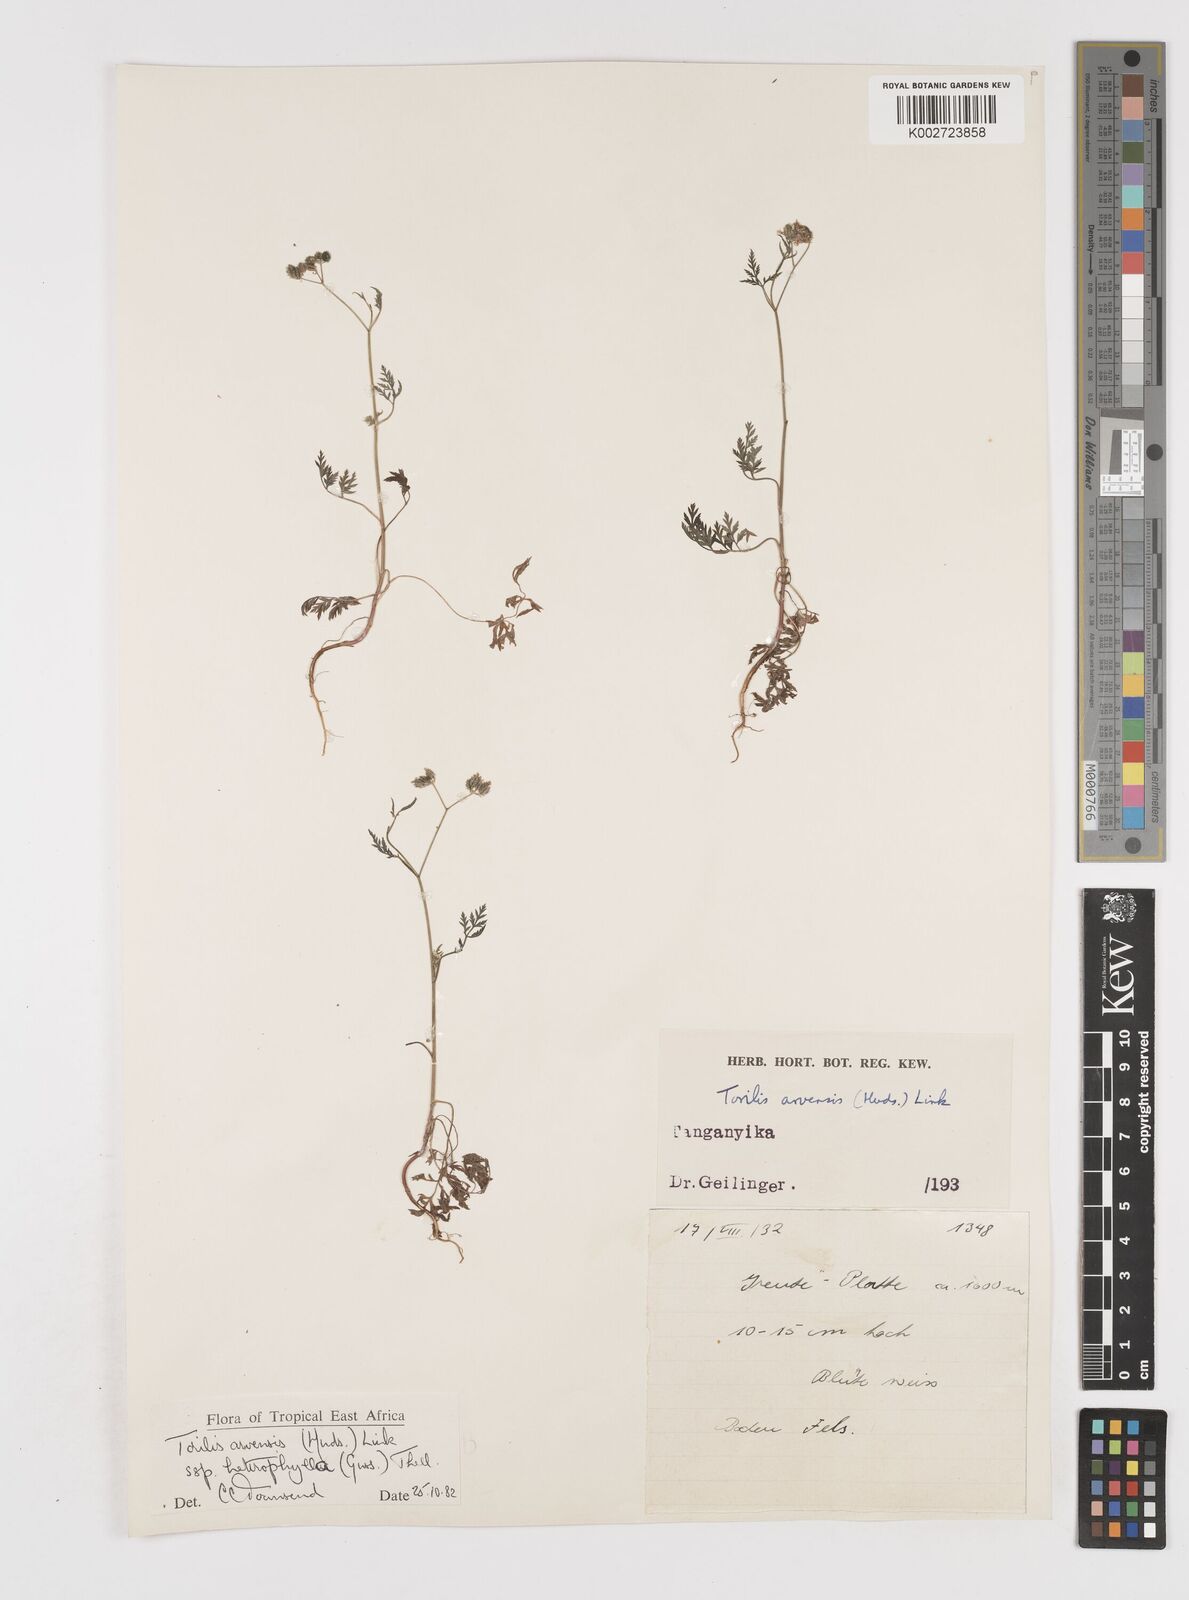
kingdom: Plantae
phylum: Tracheophyta
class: Magnoliopsida
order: Apiales
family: Apiaceae
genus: Torilis
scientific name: Torilis arvensis
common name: Spreading hedge-parsley
